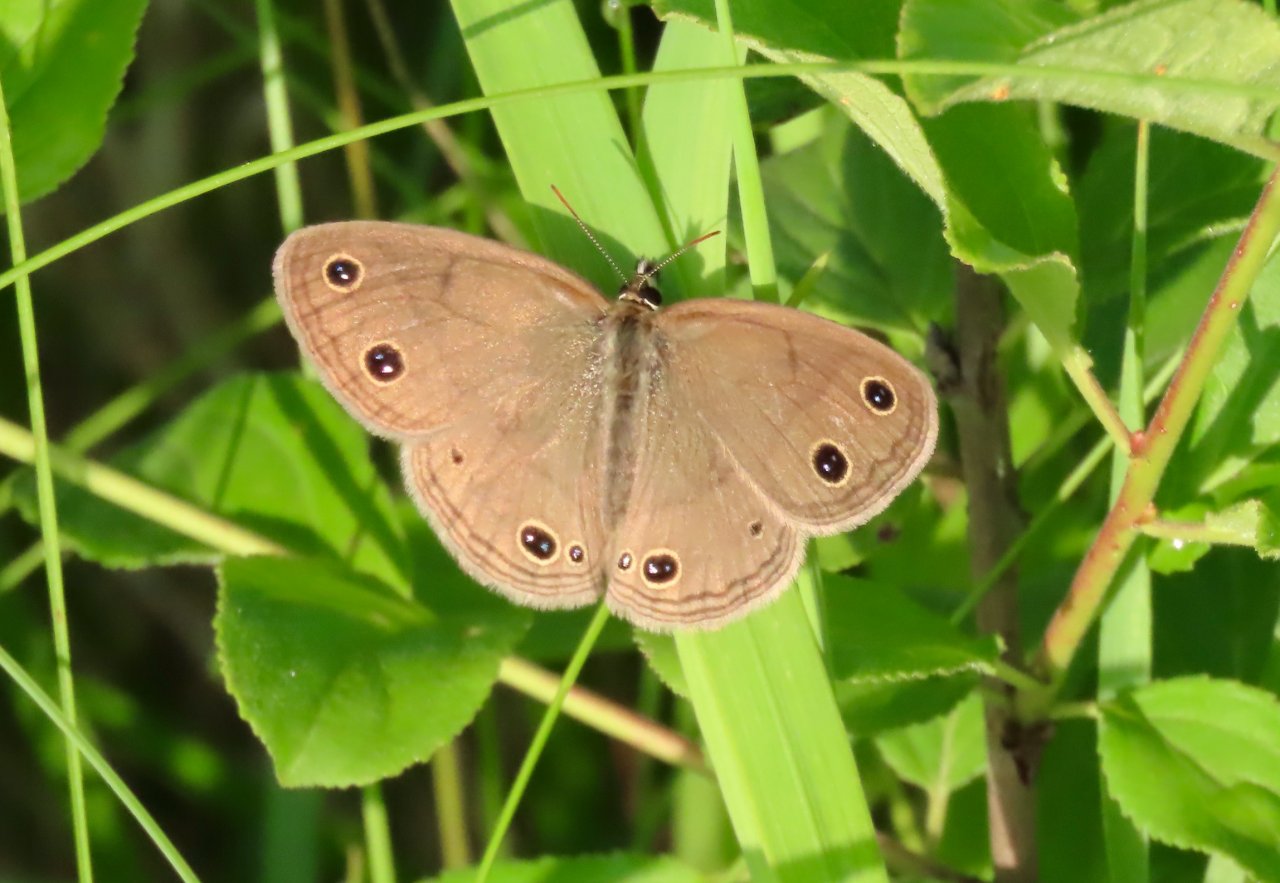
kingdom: Animalia
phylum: Arthropoda
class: Insecta
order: Lepidoptera
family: Nymphalidae
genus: Euptychia
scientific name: Euptychia cymela
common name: Little Wood Satyr
